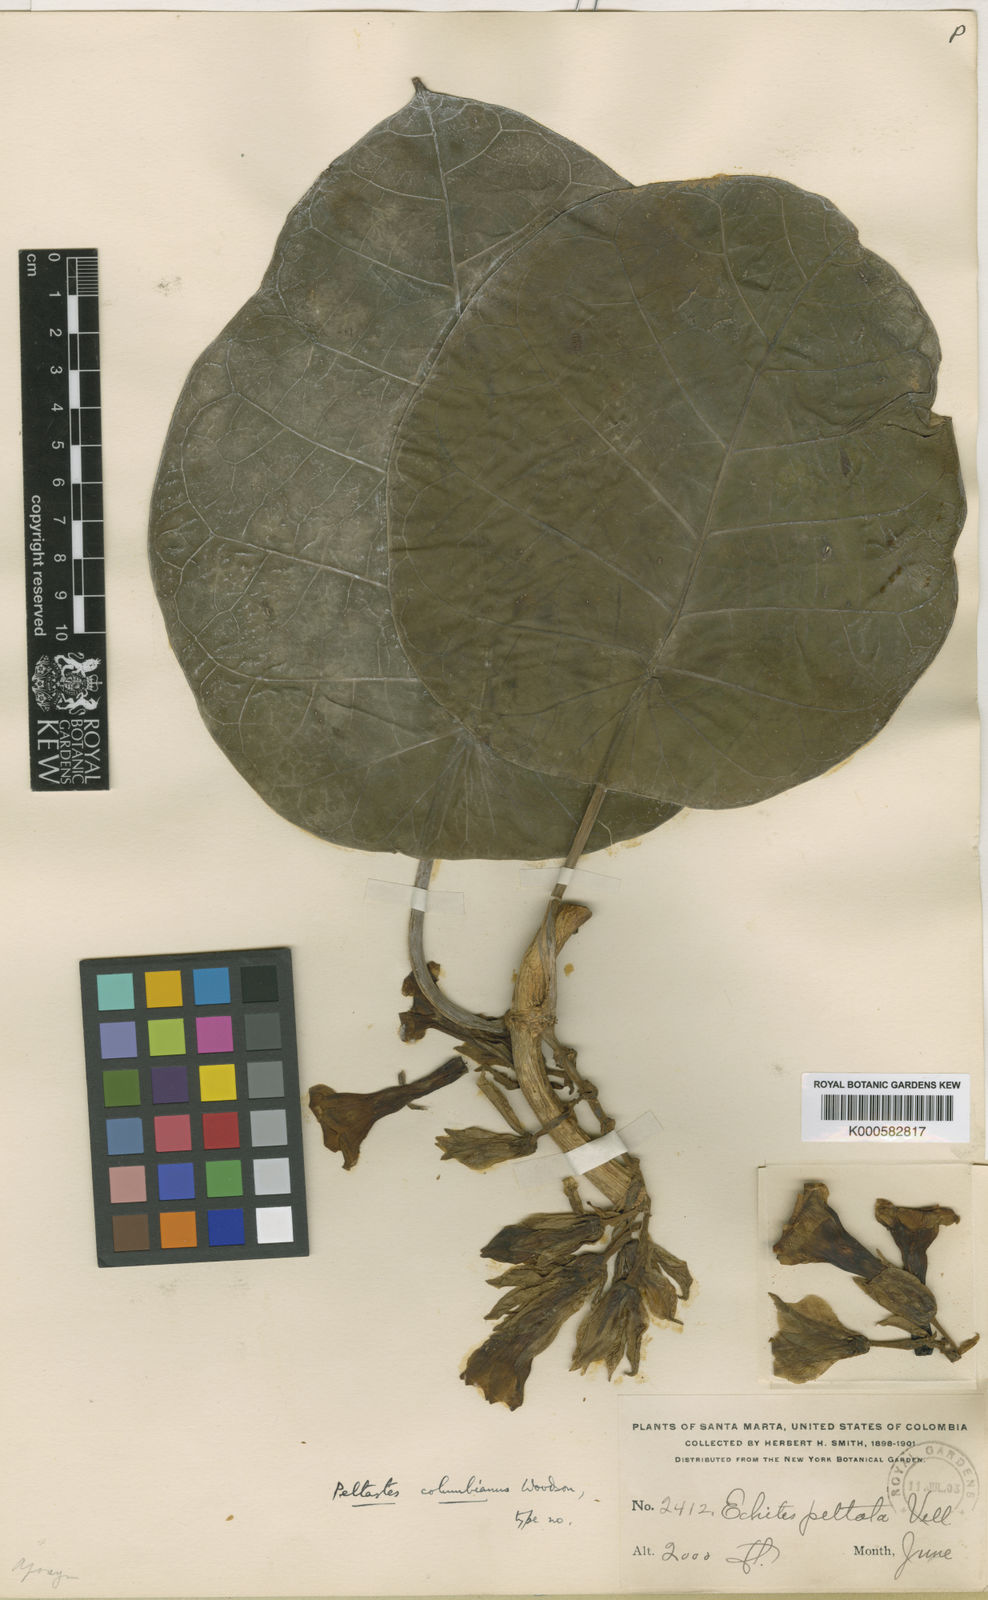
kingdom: Plantae
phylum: Tracheophyta
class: Magnoliopsida
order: Gentianales
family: Apocynaceae
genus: Macropharynx
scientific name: Macropharynx colombiana
